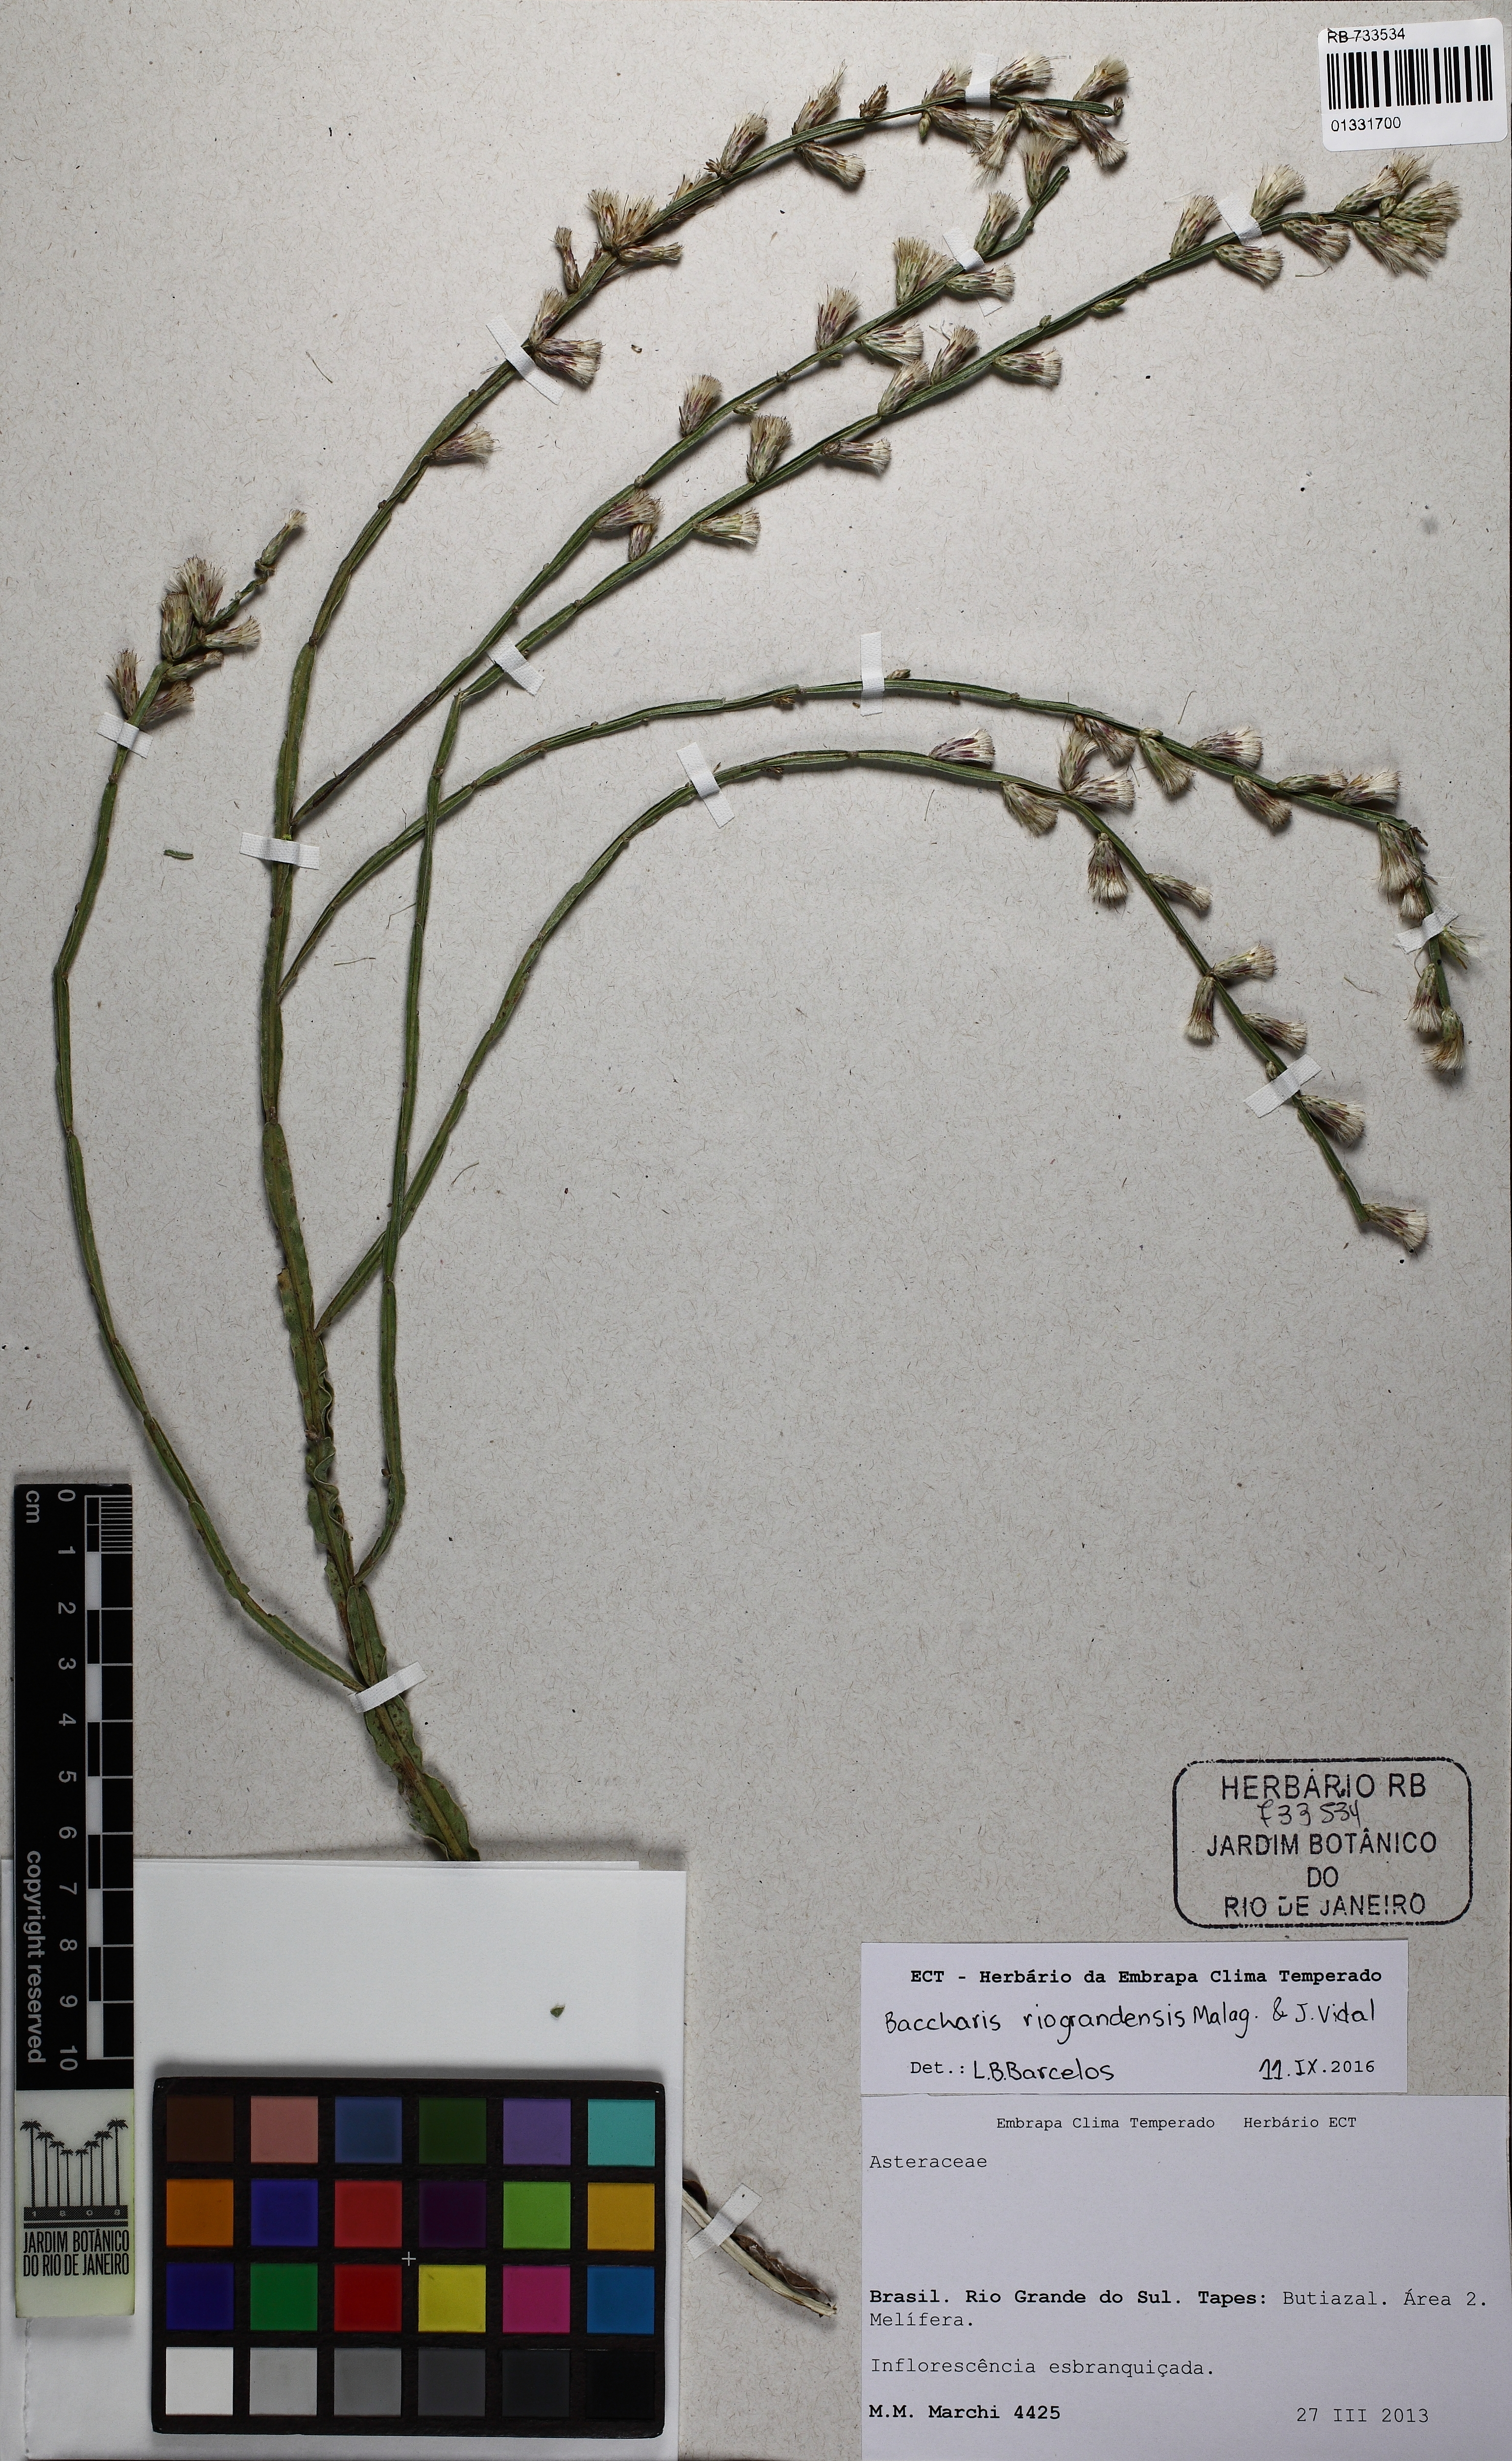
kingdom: Plantae
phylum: Tracheophyta
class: Magnoliopsida
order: Asterales
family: Asteraceae
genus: Baccharis
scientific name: Baccharis riograndensis
